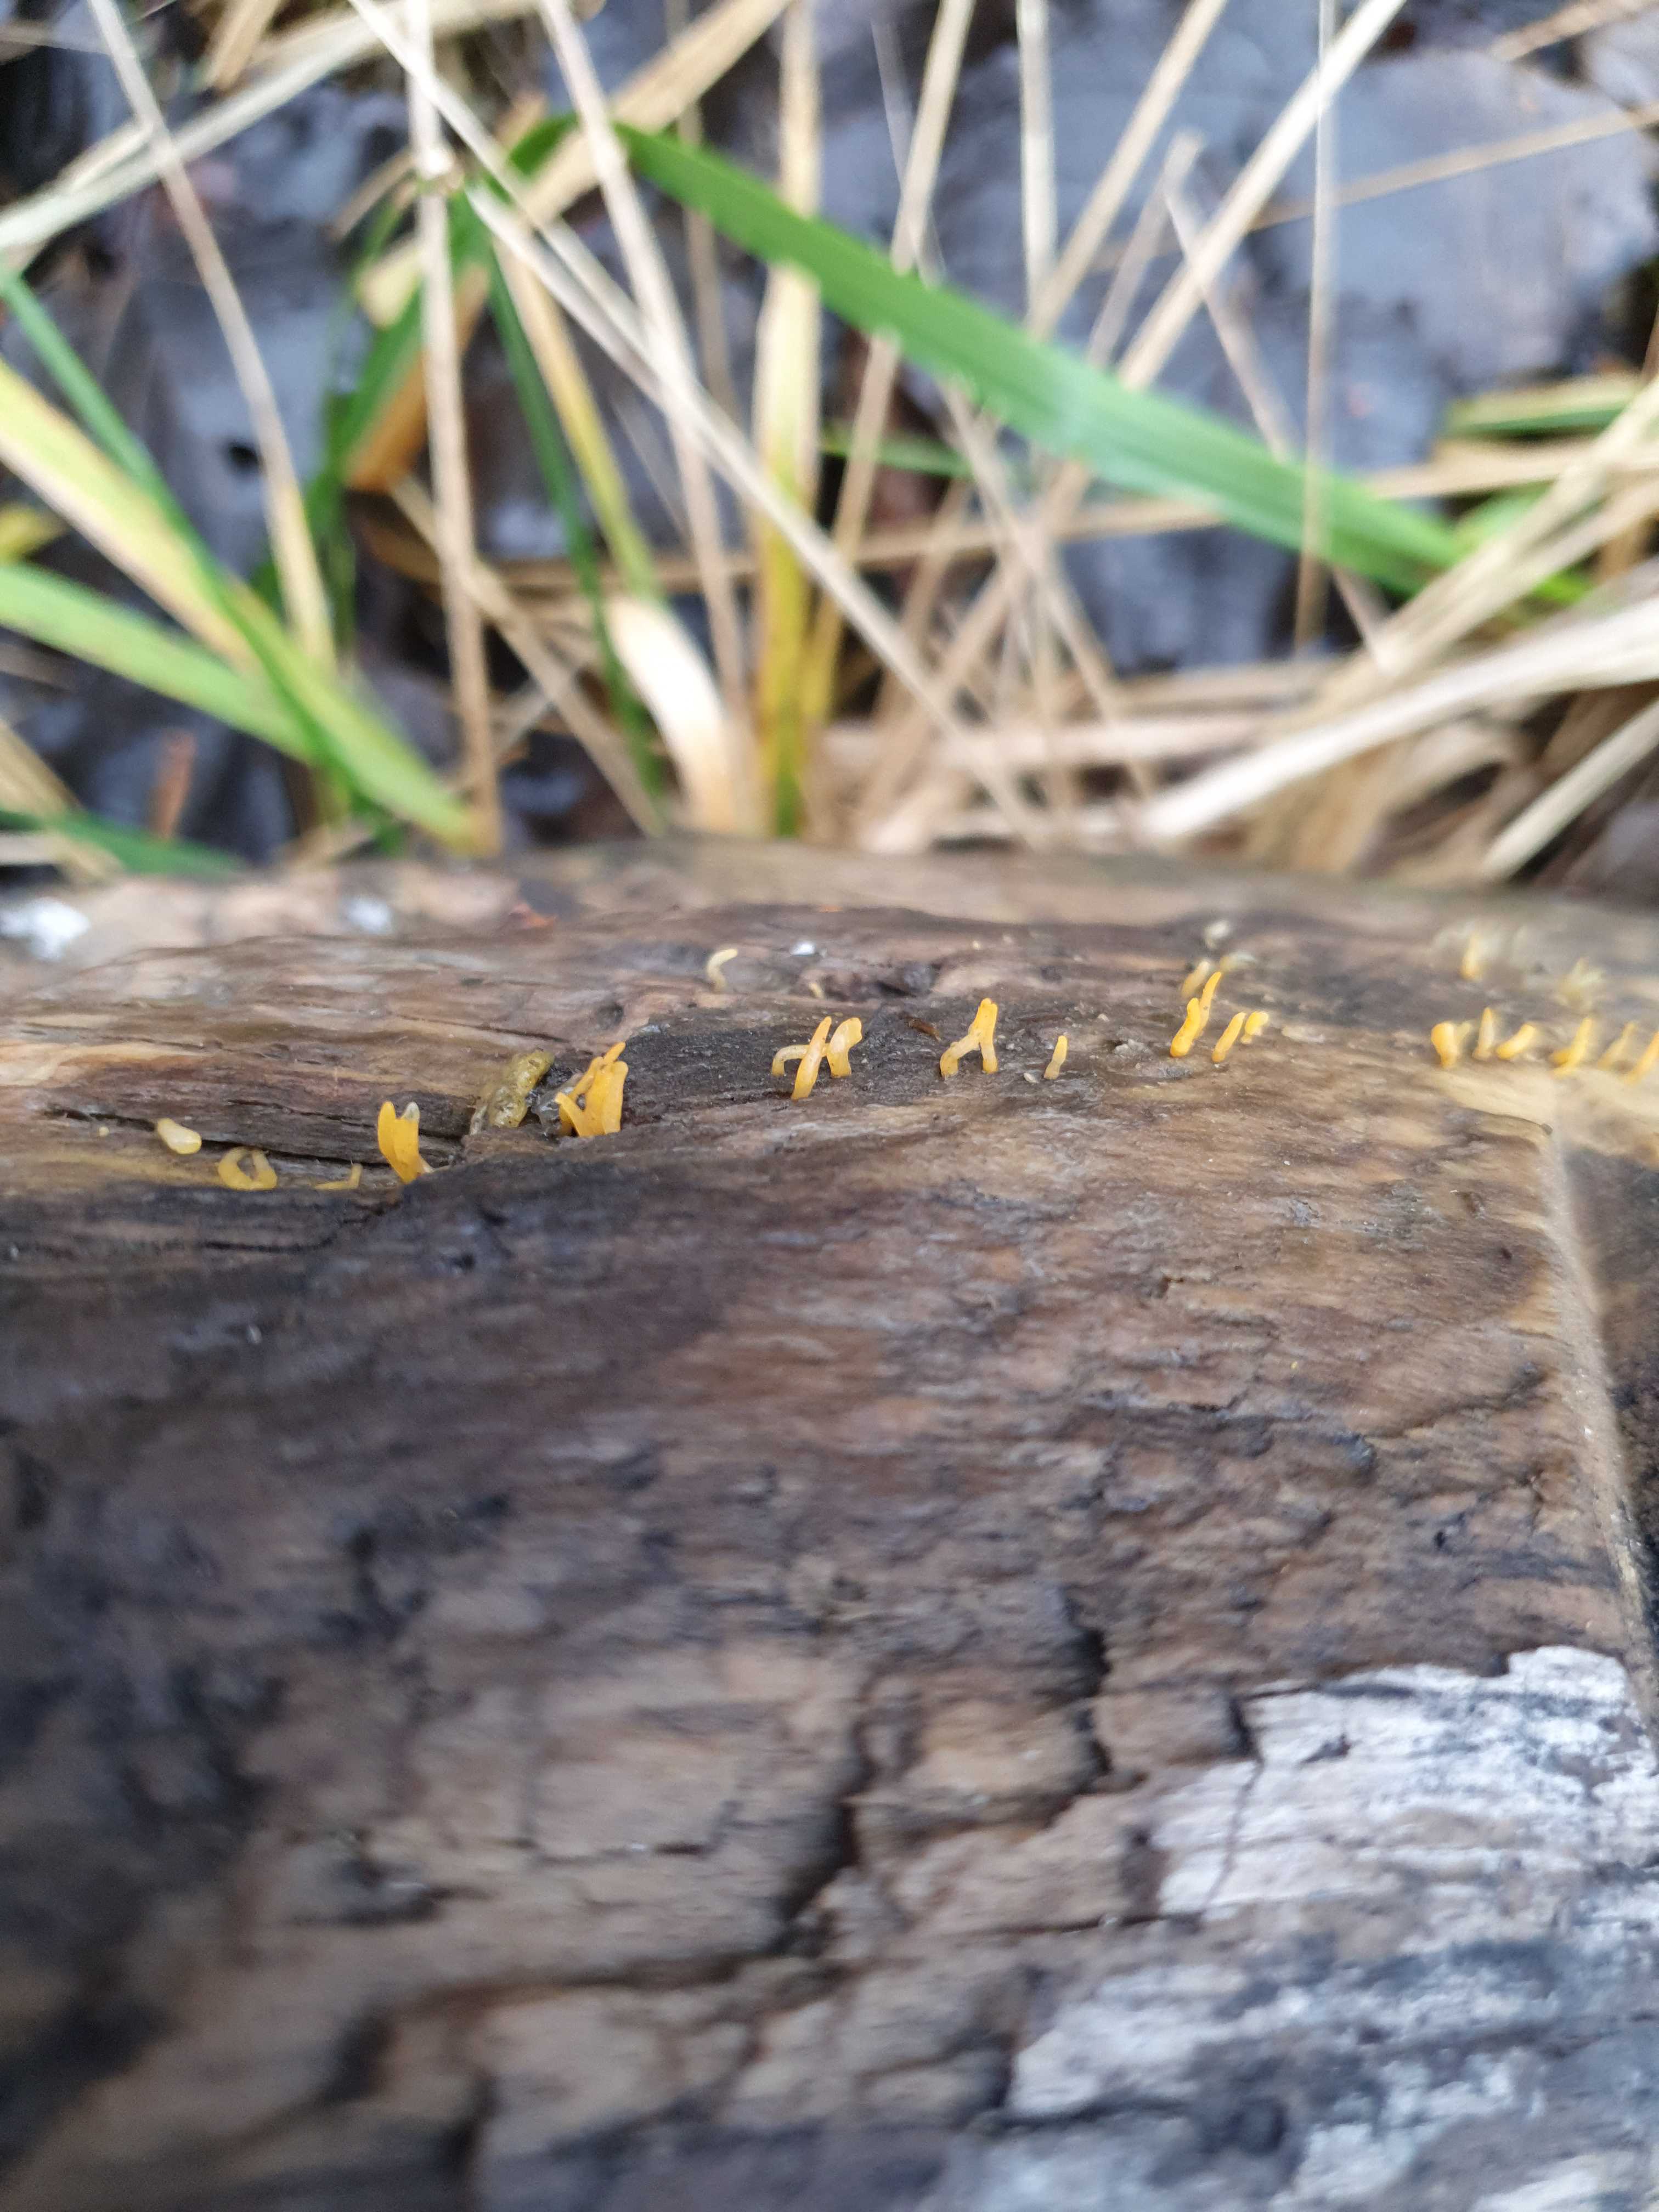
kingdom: Fungi
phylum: Basidiomycota
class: Dacrymycetes
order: Dacrymycetales
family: Dacrymycetaceae
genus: Calocera
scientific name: Calocera cornea
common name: liden guldgaffel
